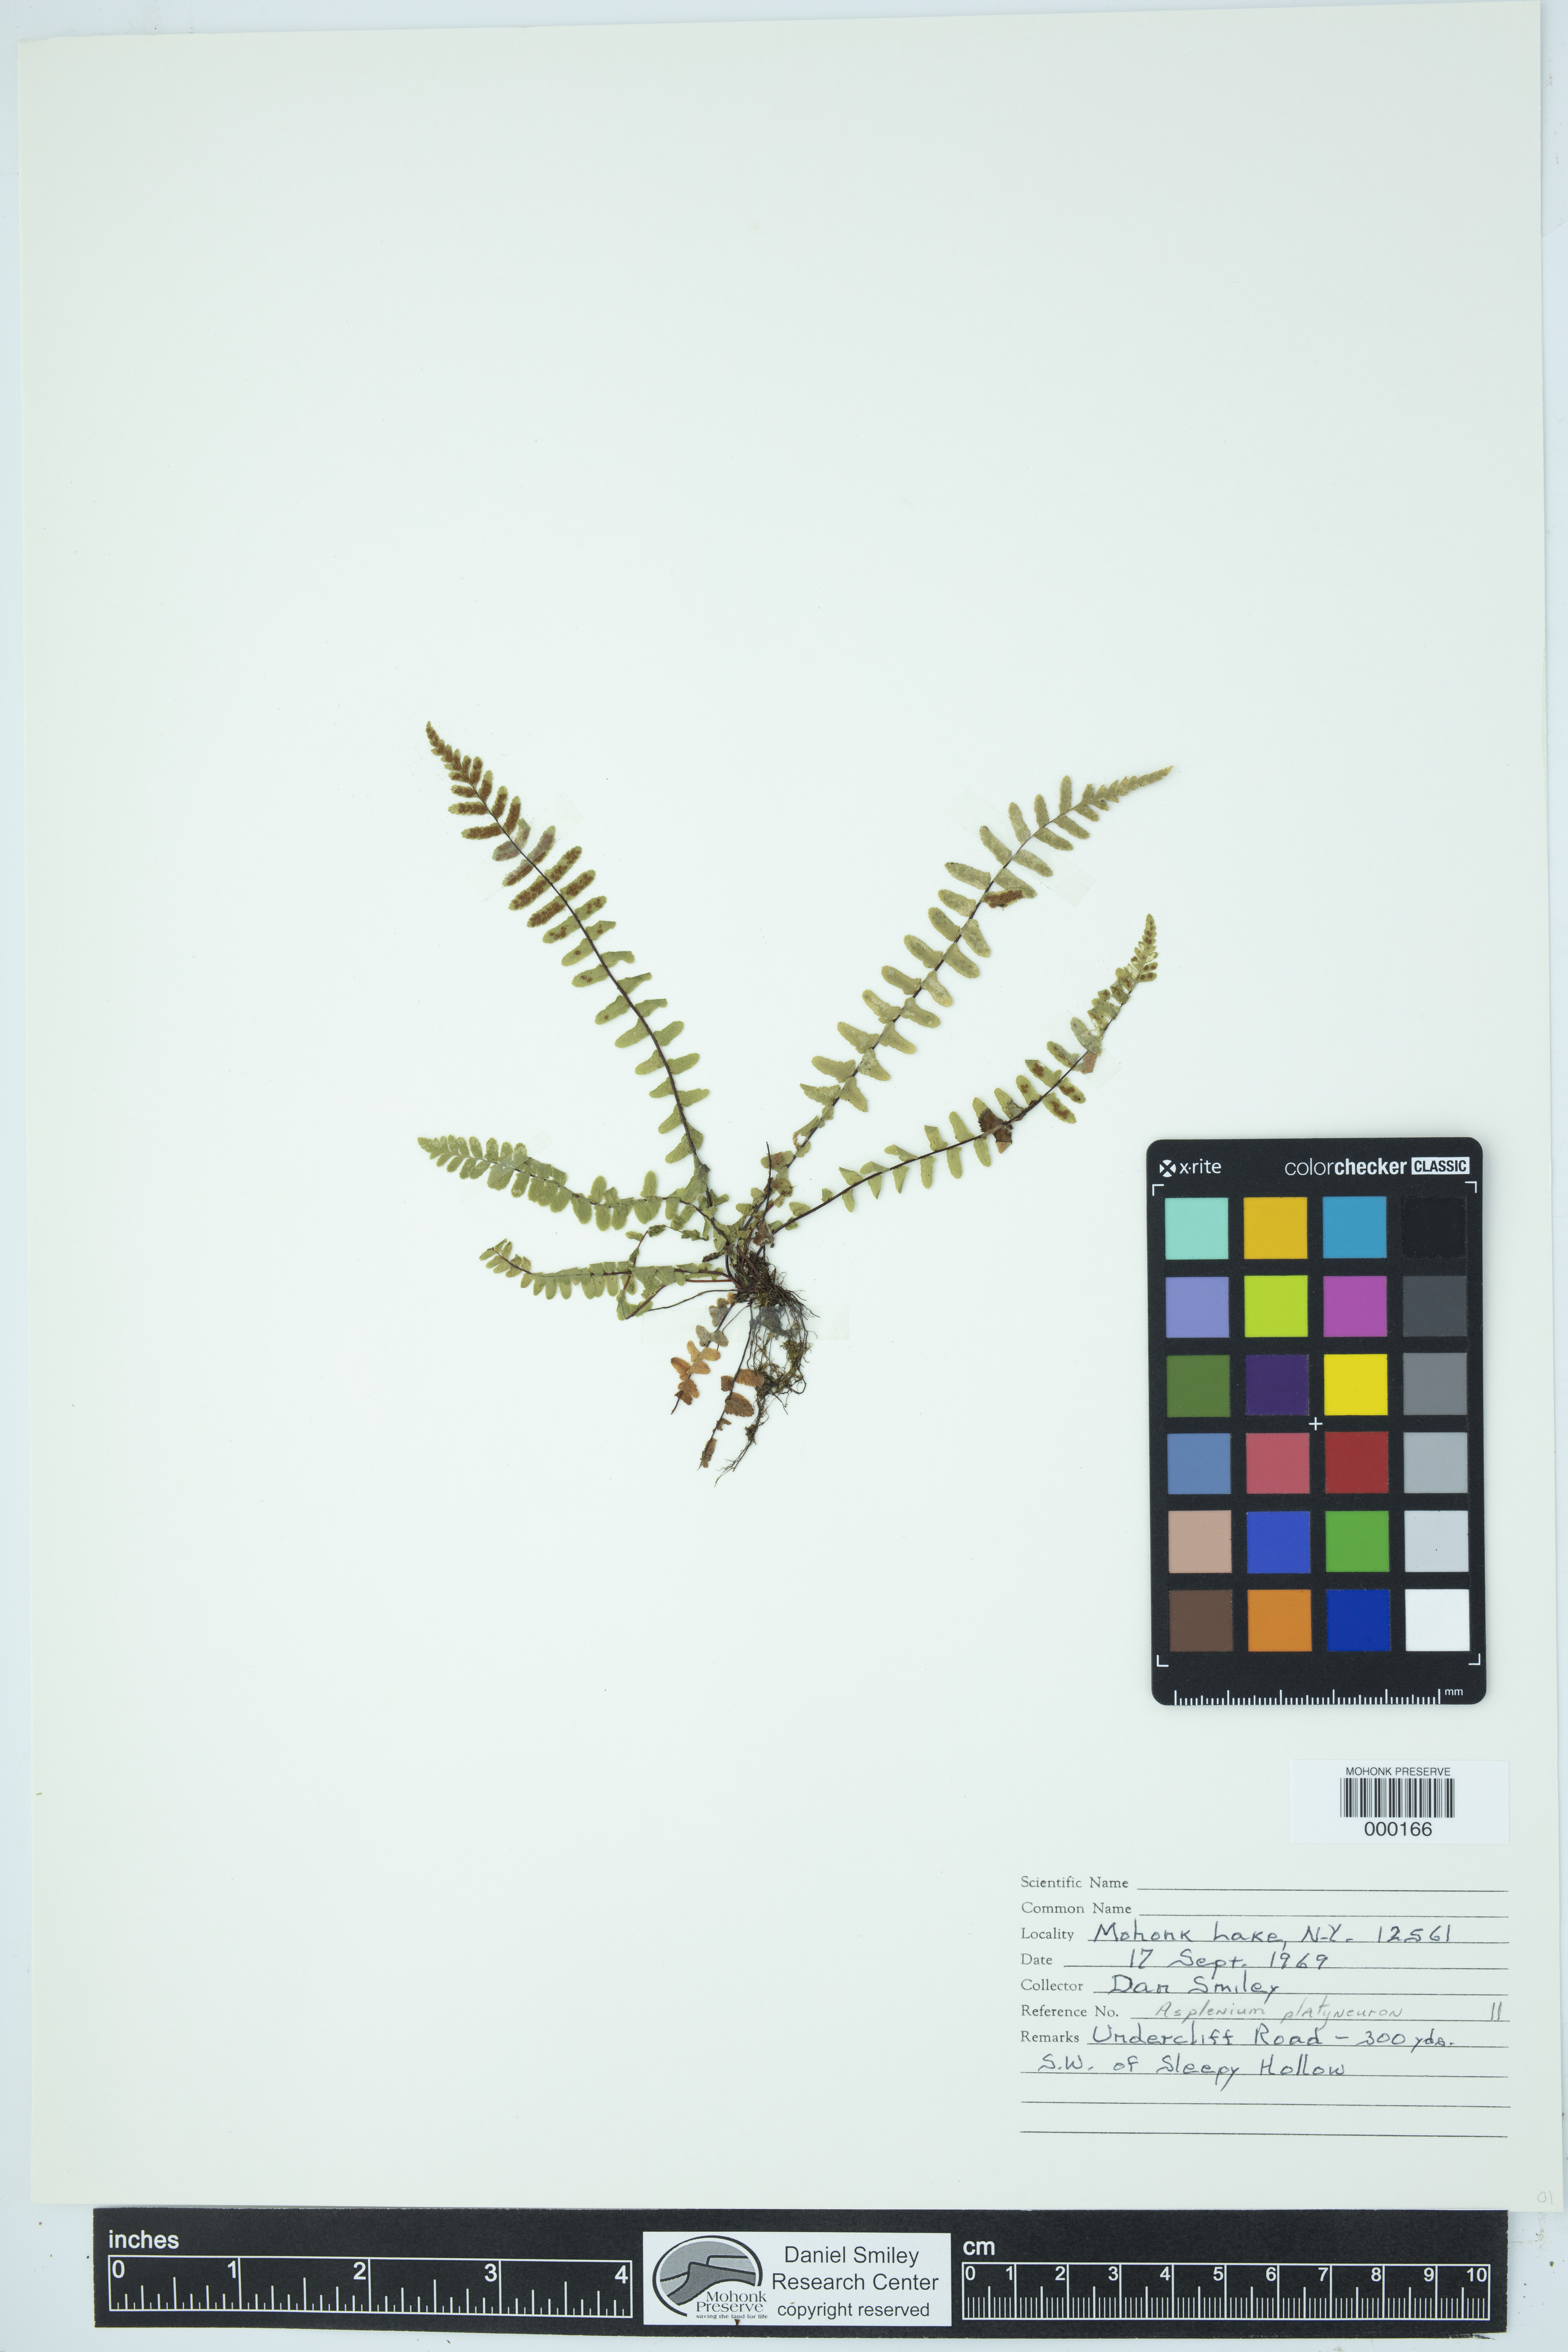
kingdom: Plantae
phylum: Tracheophyta
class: Polypodiopsida
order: Polypodiales
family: Aspleniaceae
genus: Asplenium
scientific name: Asplenium platyneuron
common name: Ebony spleenwort
